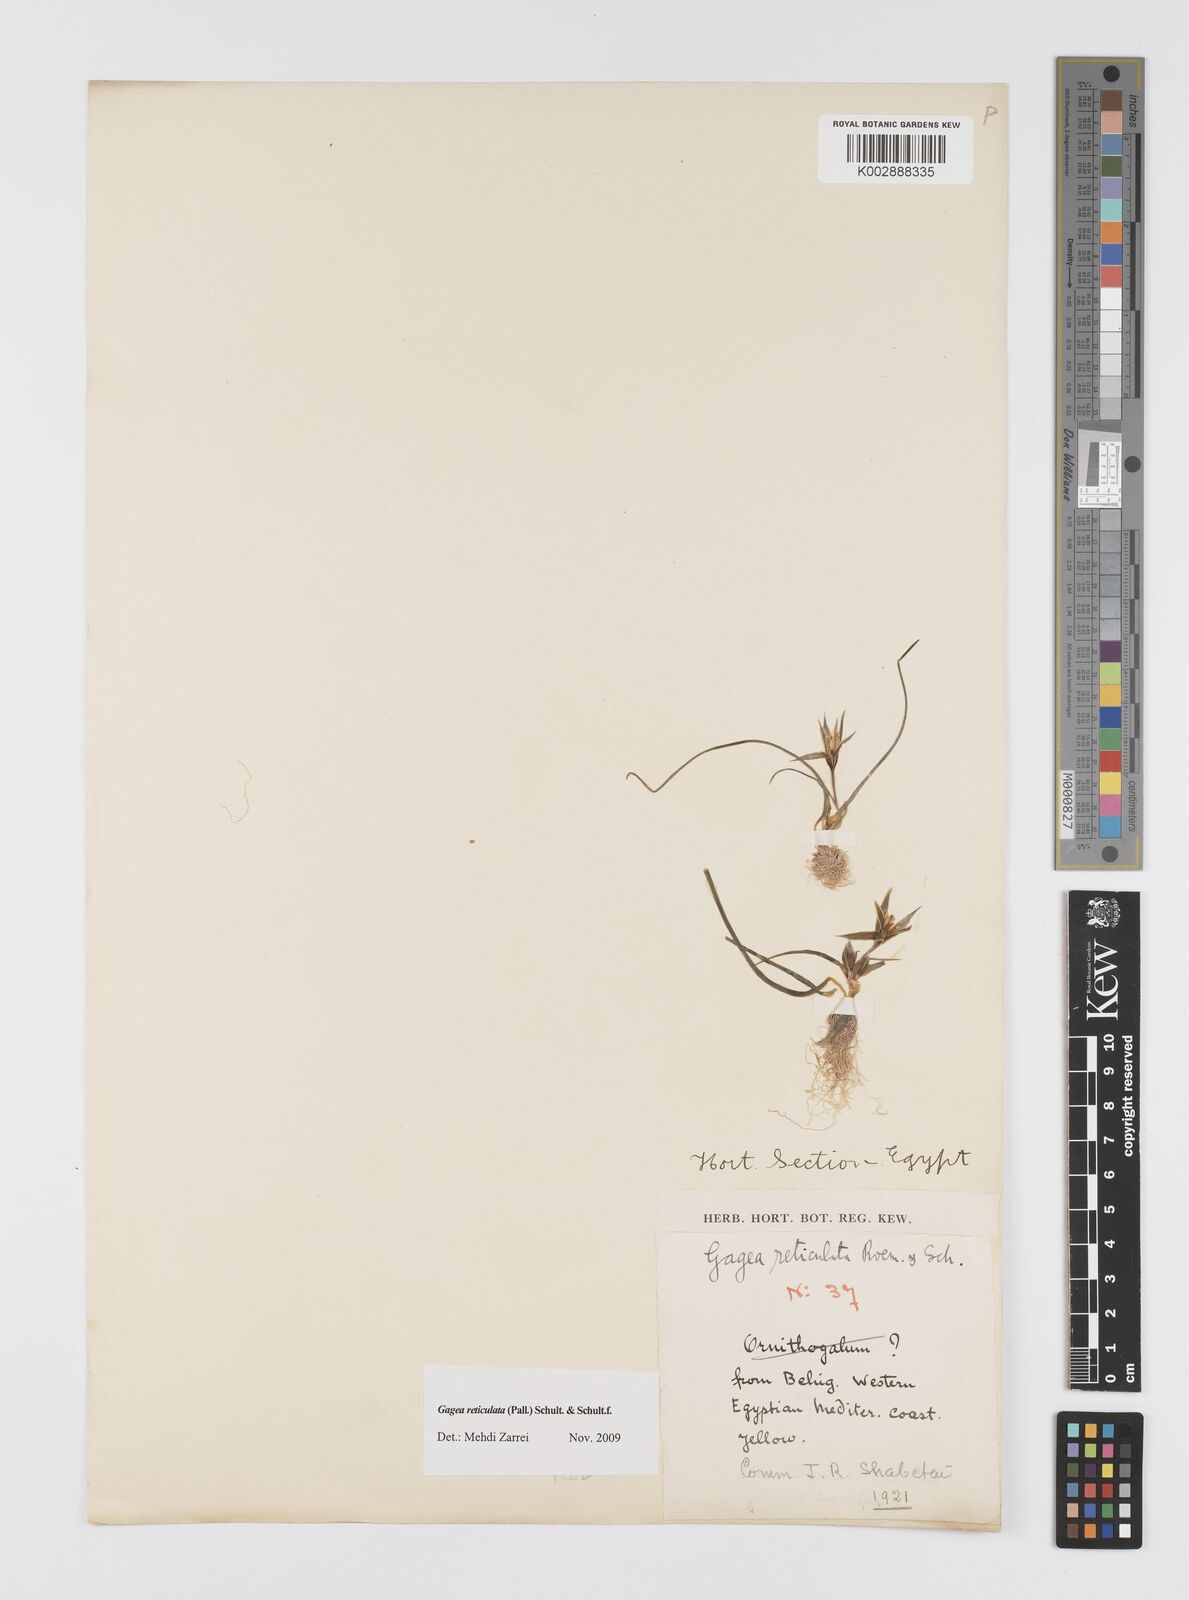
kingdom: Plantae
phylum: Tracheophyta
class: Liliopsida
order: Liliales
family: Liliaceae
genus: Gagea
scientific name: Gagea
